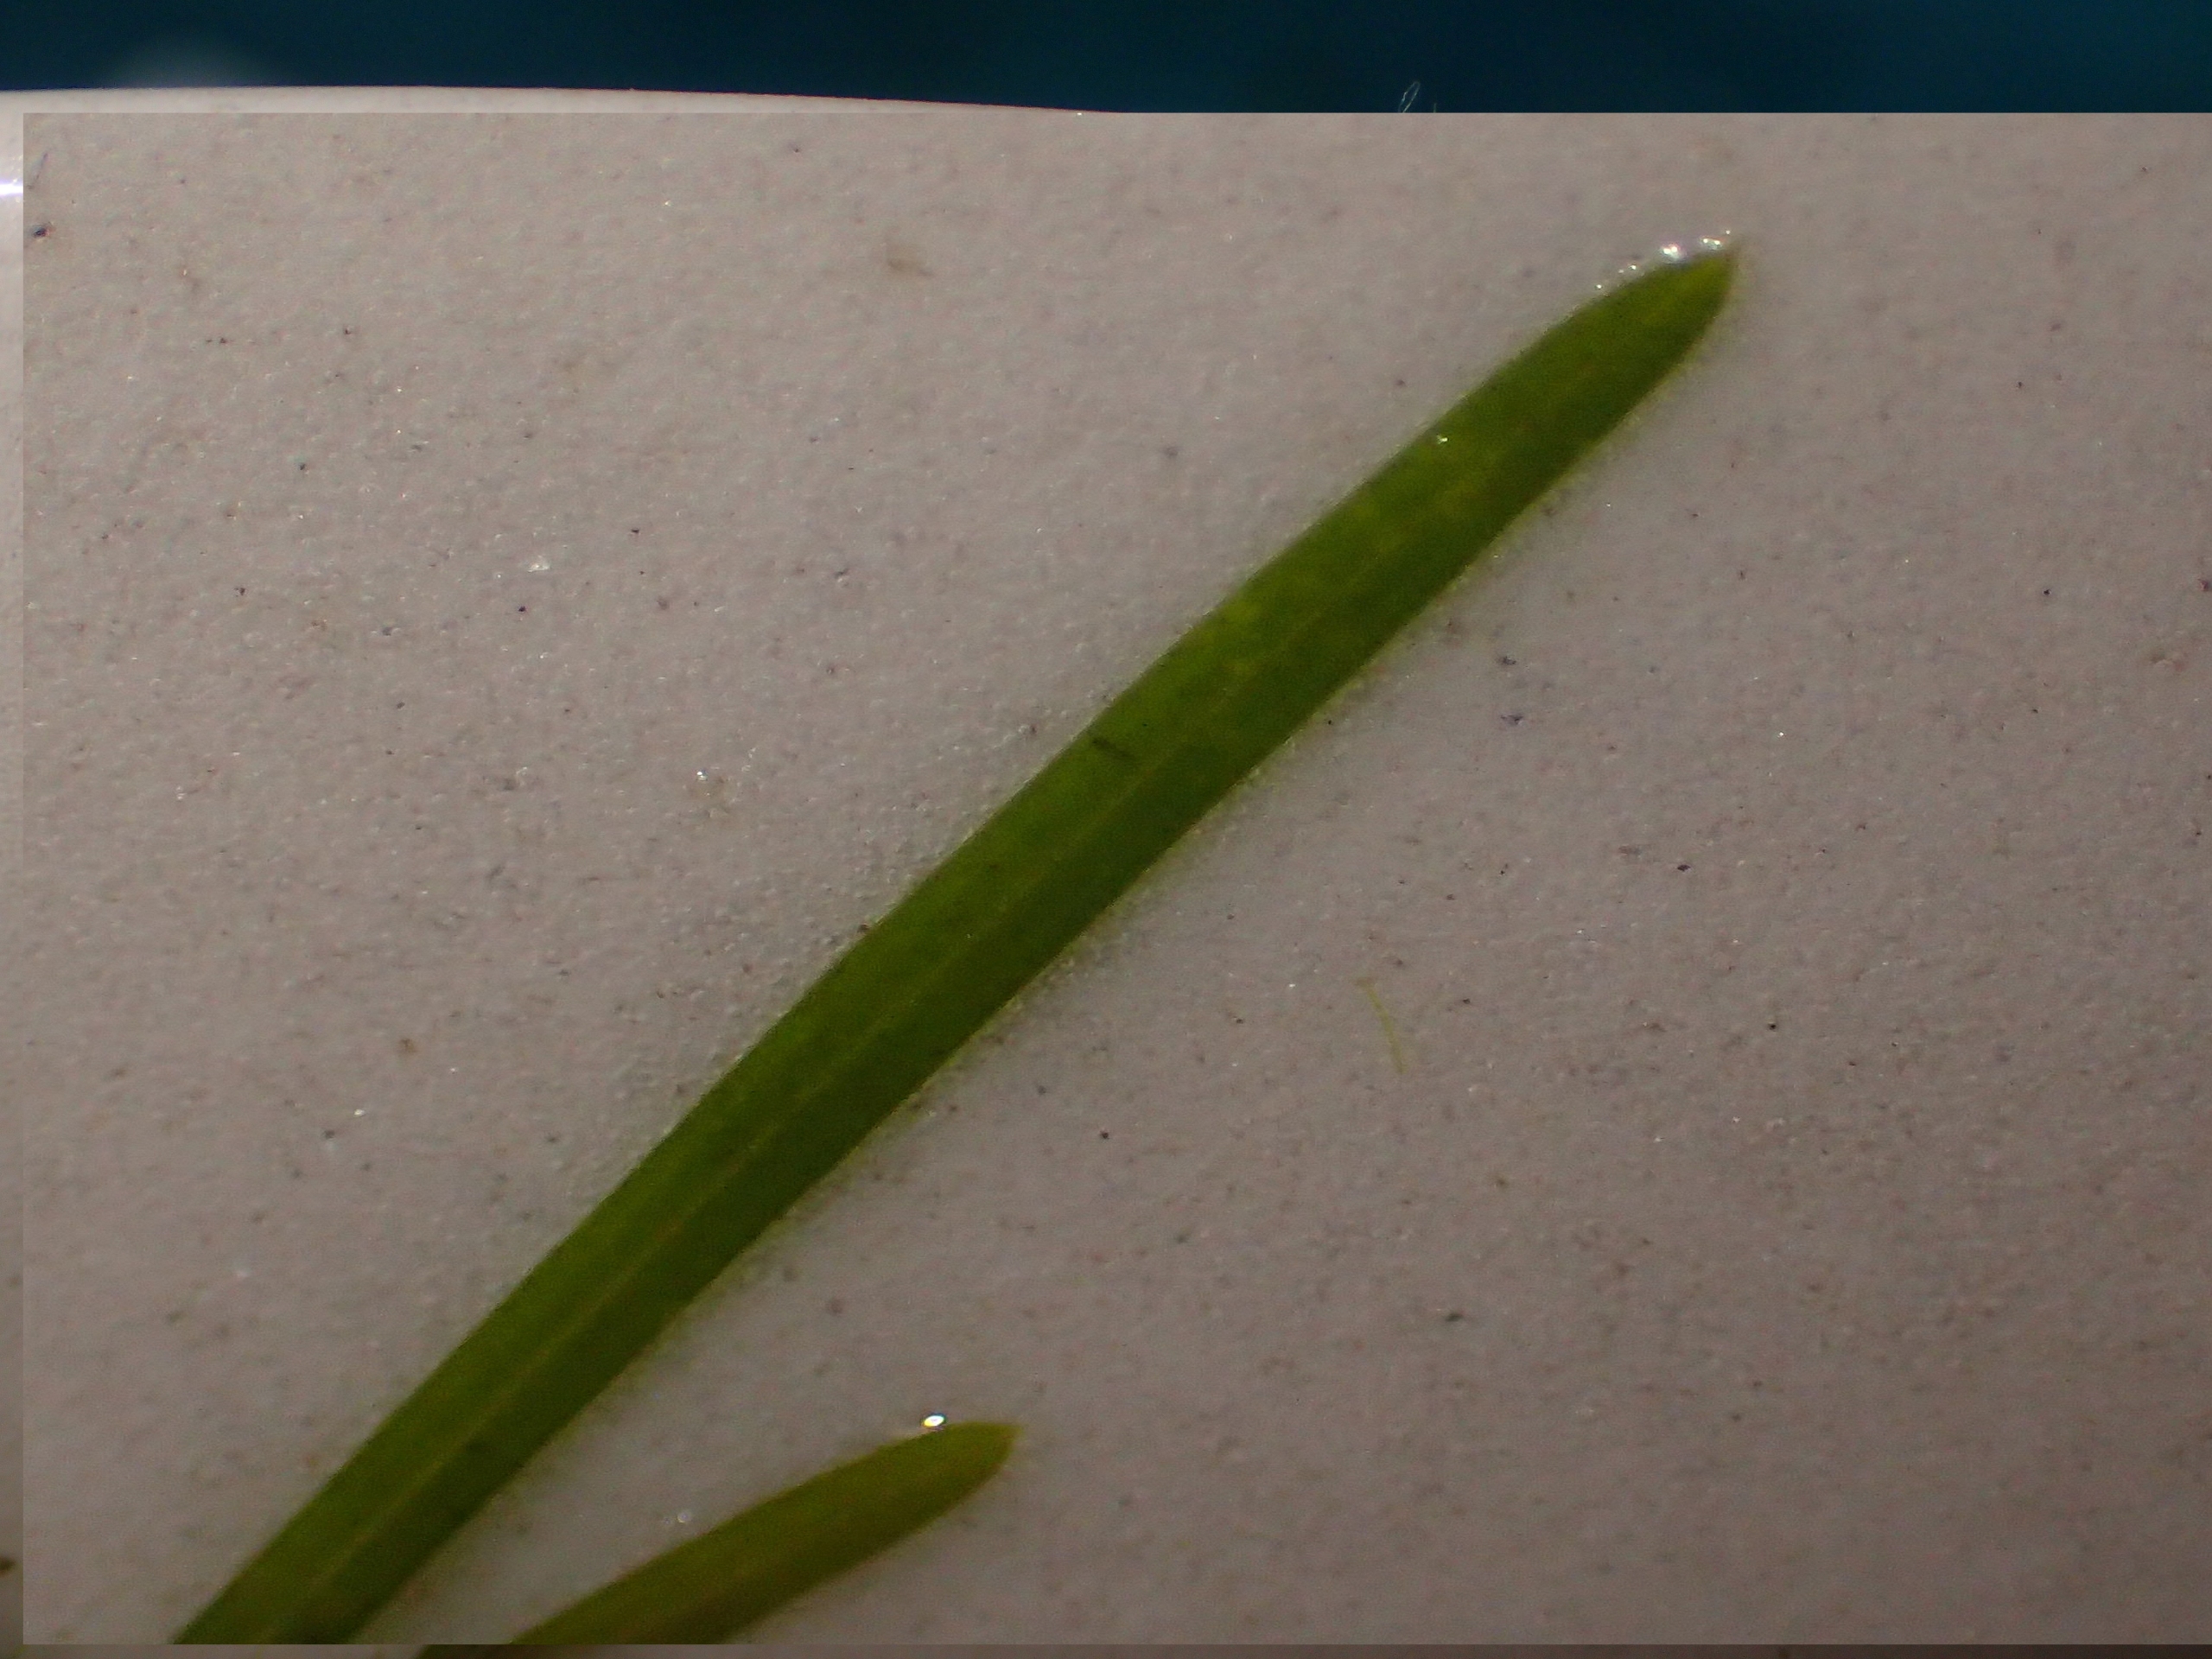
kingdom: Plantae
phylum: Tracheophyta
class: Liliopsida
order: Alismatales
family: Potamogetonaceae
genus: Potamogeton
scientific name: Potamogeton pusillus
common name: Spinkel vandaks
